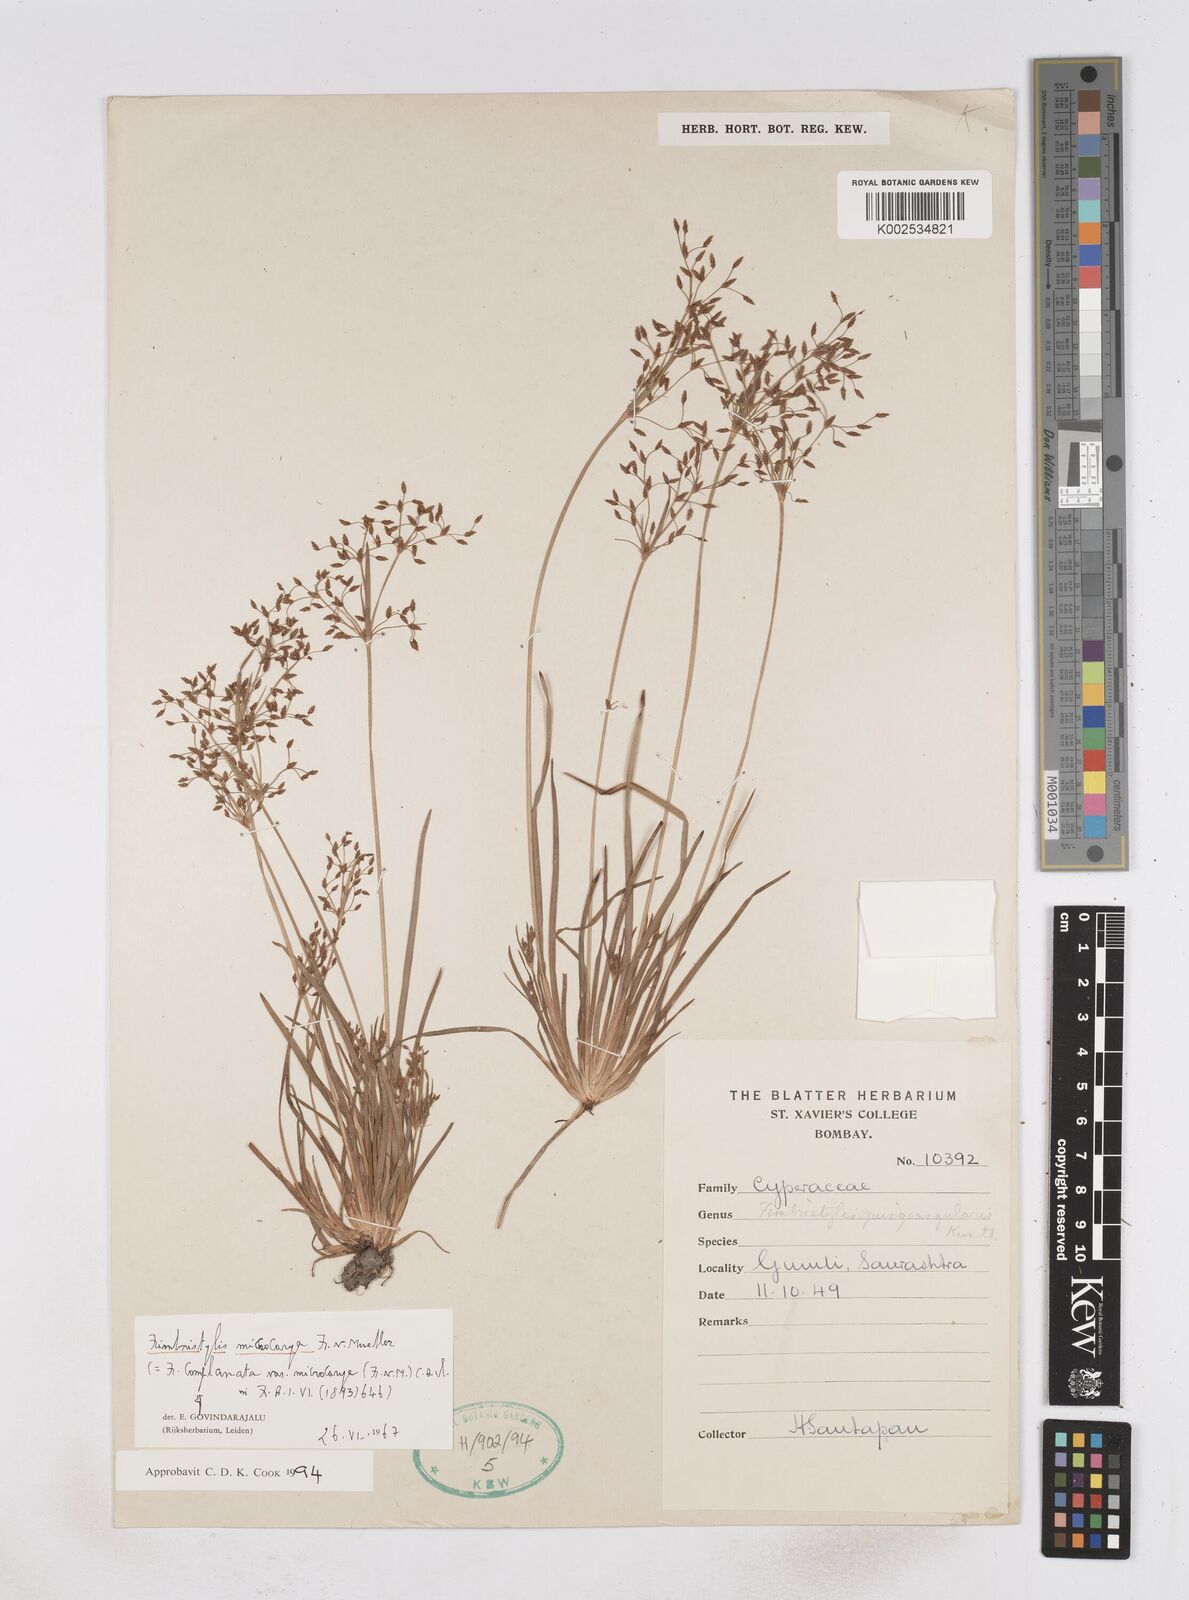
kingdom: Plantae
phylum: Tracheophyta
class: Liliopsida
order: Poales
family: Cyperaceae
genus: Fimbristylis
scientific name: Fimbristylis microcarya
